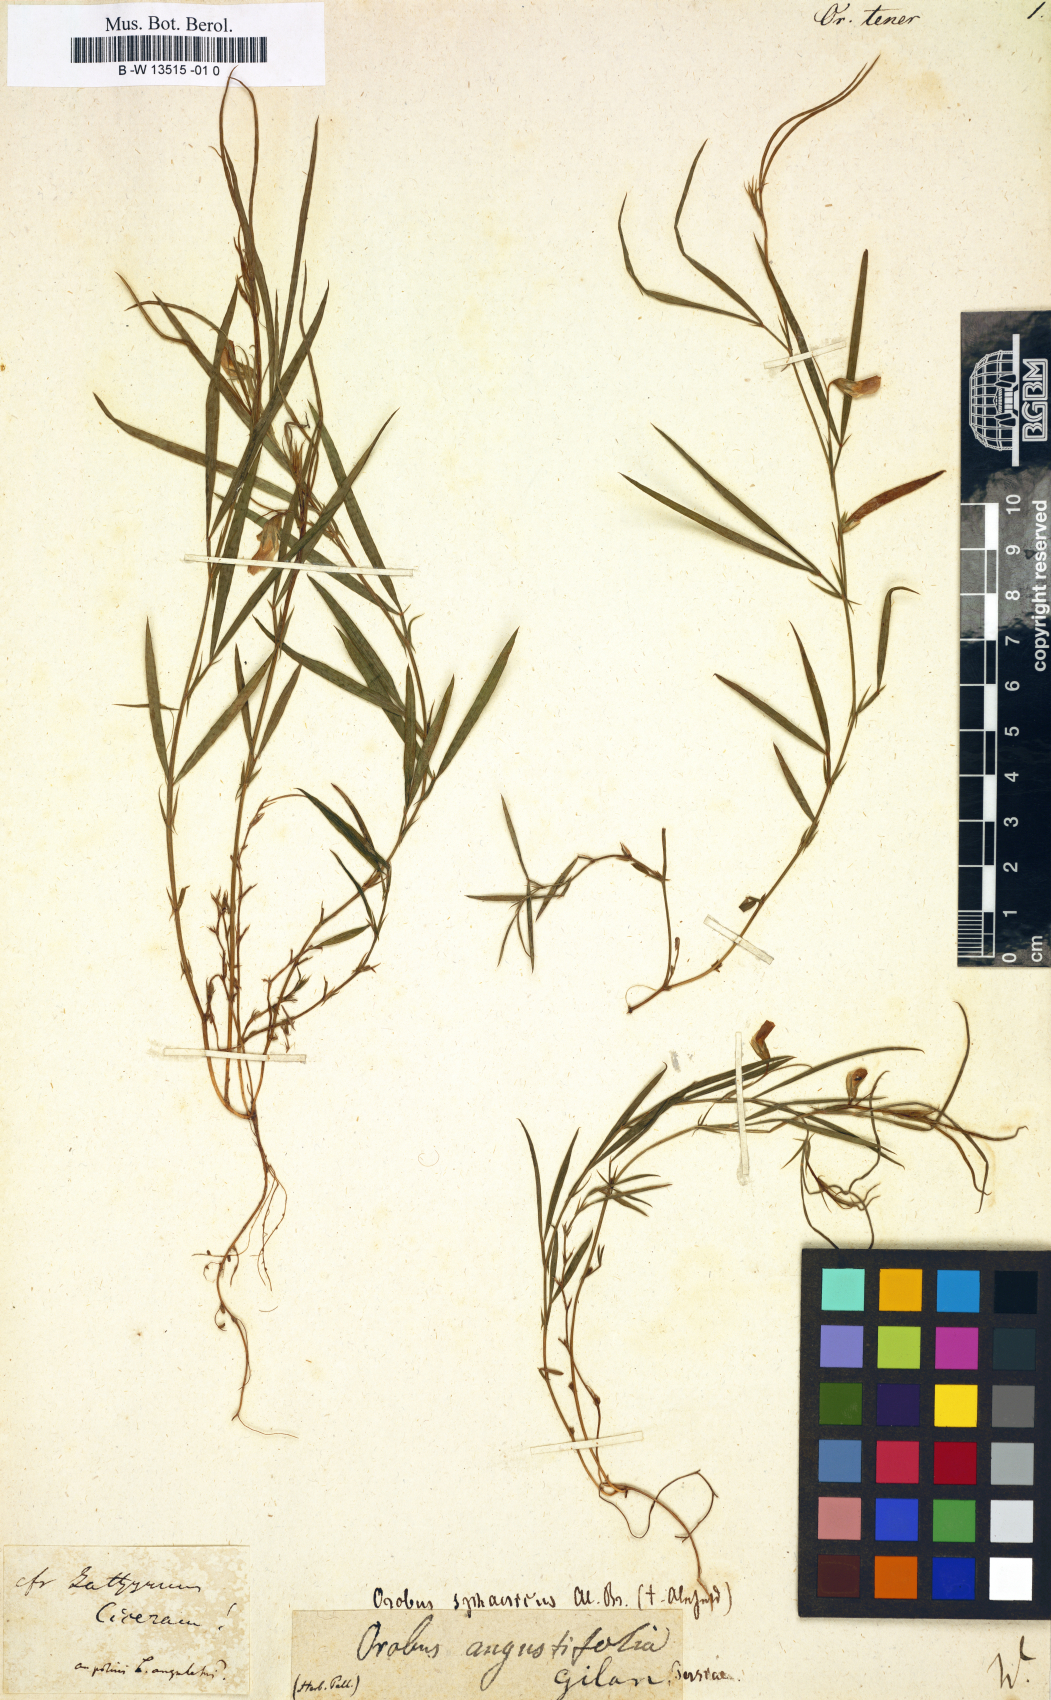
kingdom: Plantae
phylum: Tracheophyta
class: Magnoliopsida
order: Fabales
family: Fabaceae
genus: Lathyrus
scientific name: Lathyrus
